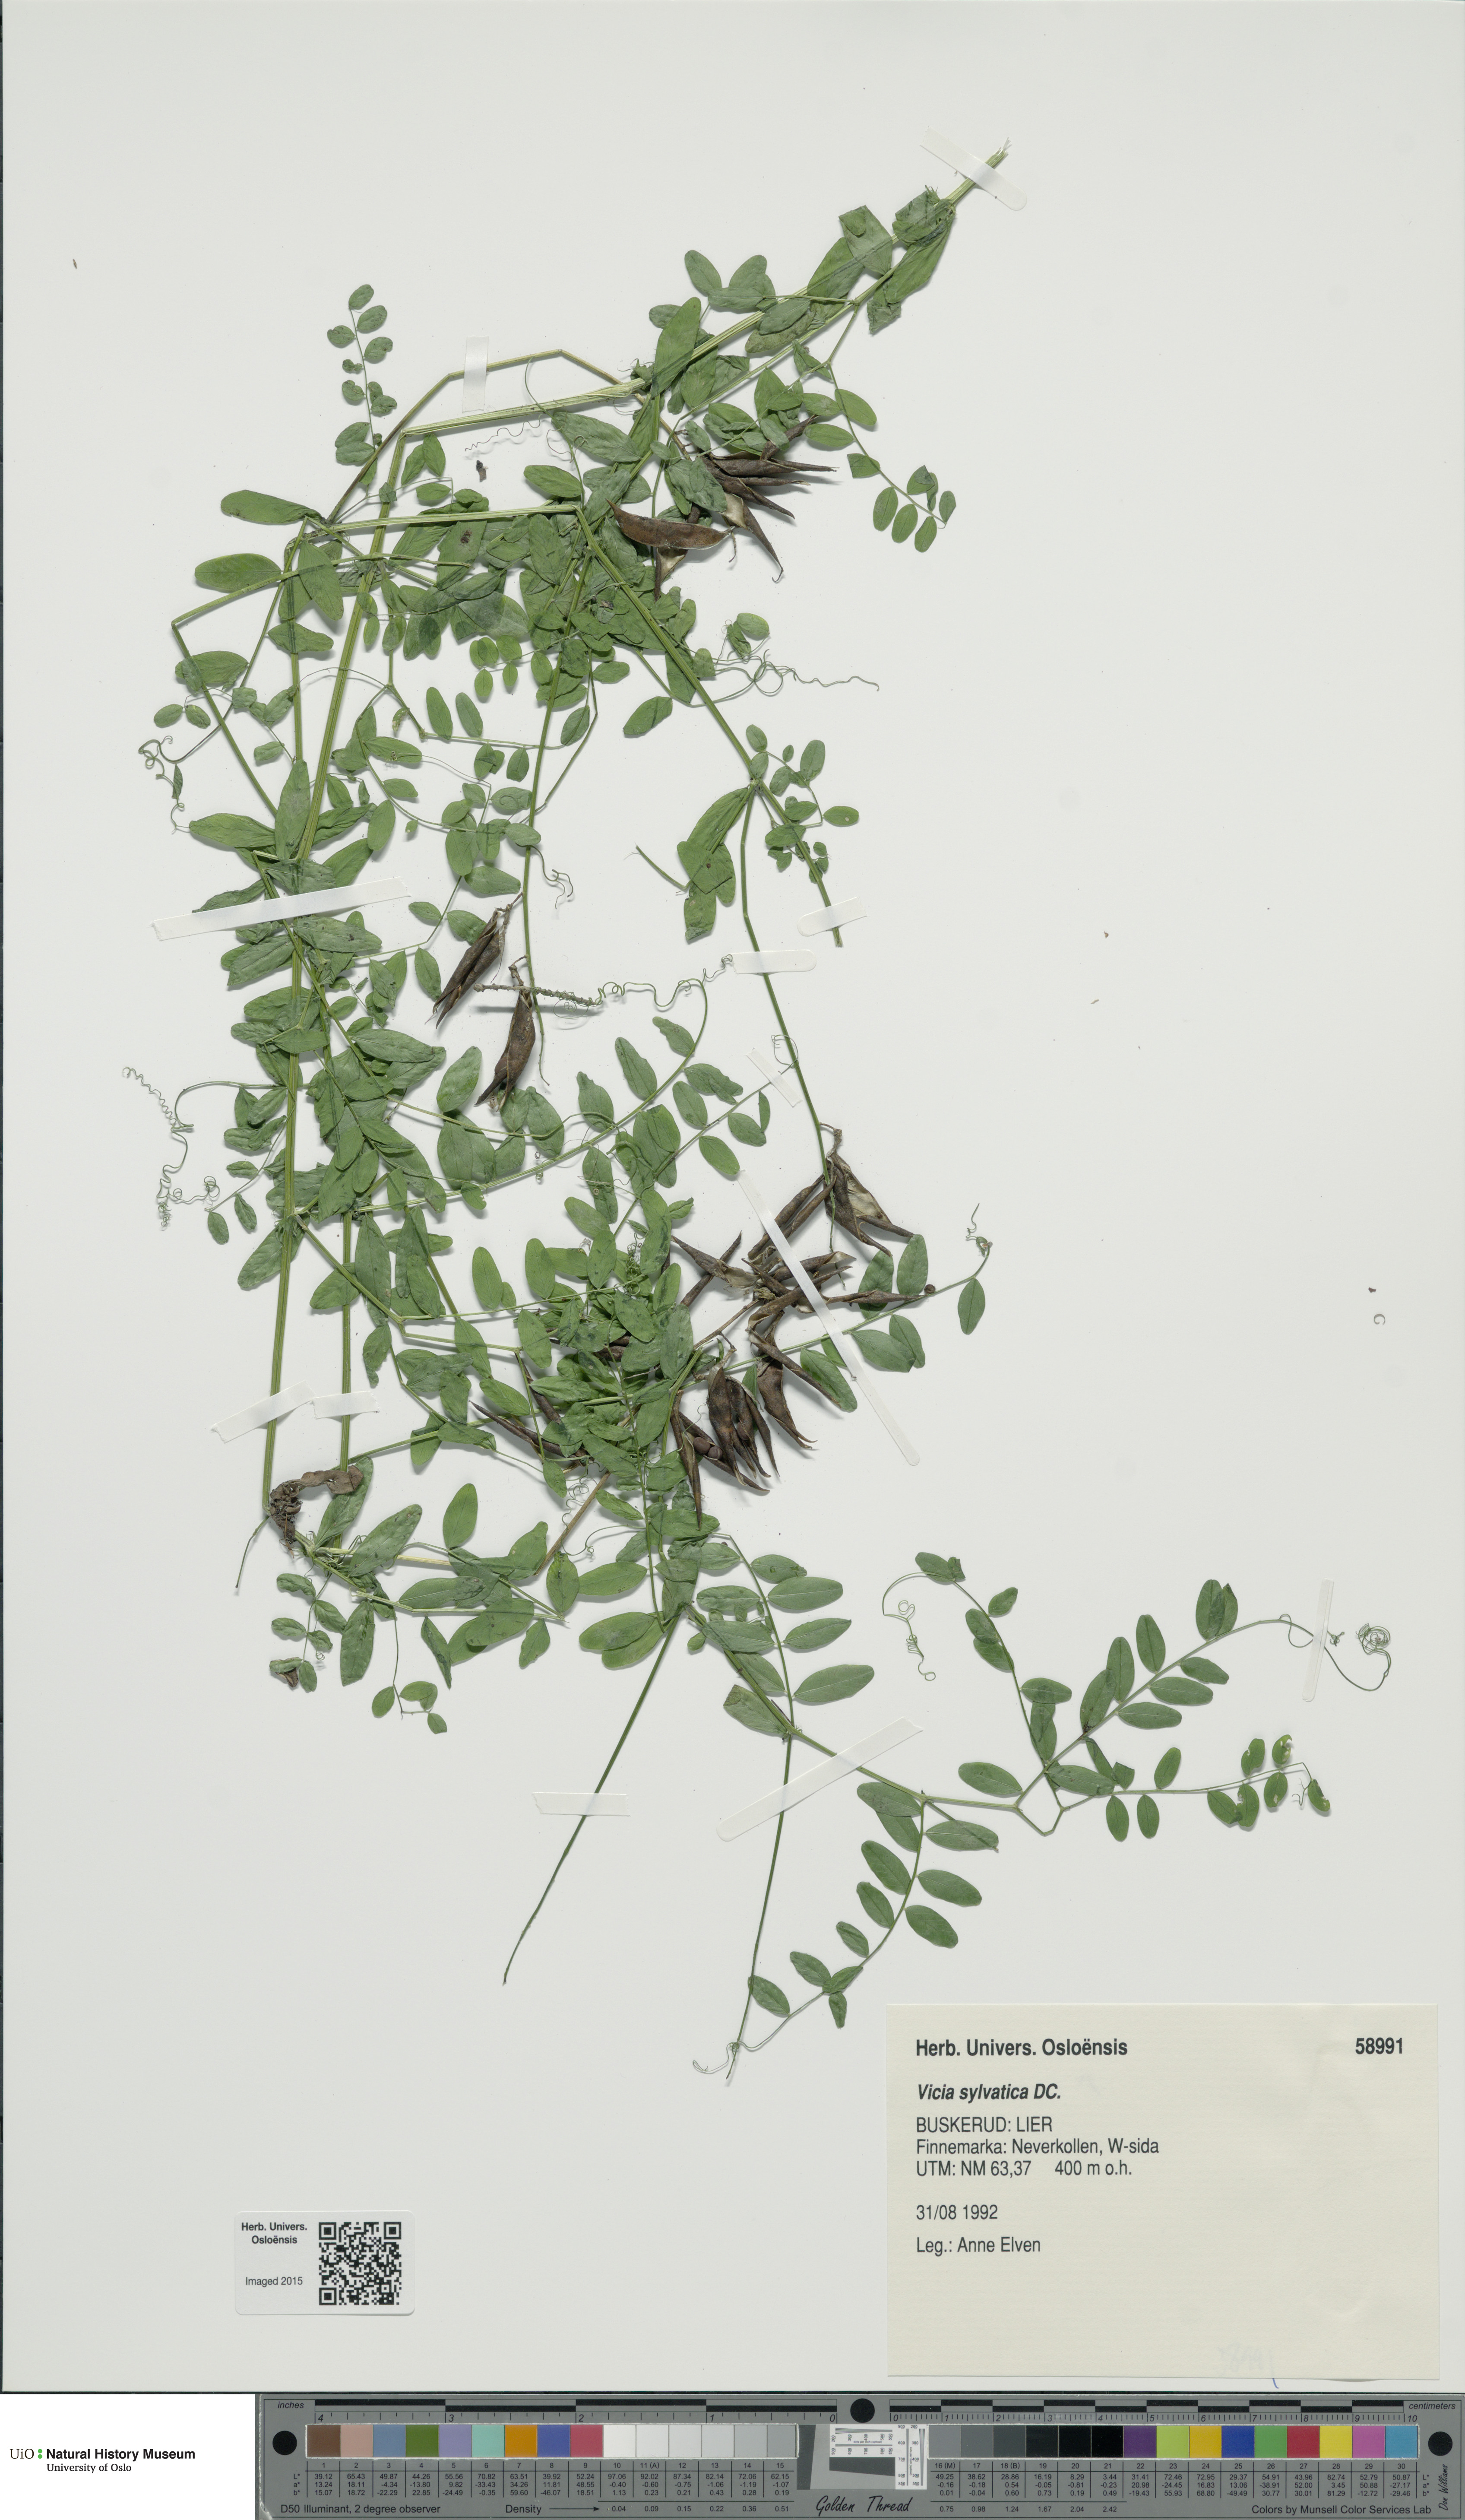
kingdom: Plantae
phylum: Tracheophyta
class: Magnoliopsida
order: Fabales
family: Fabaceae
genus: Vicia
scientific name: Vicia sylvatica
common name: Wood vetch
